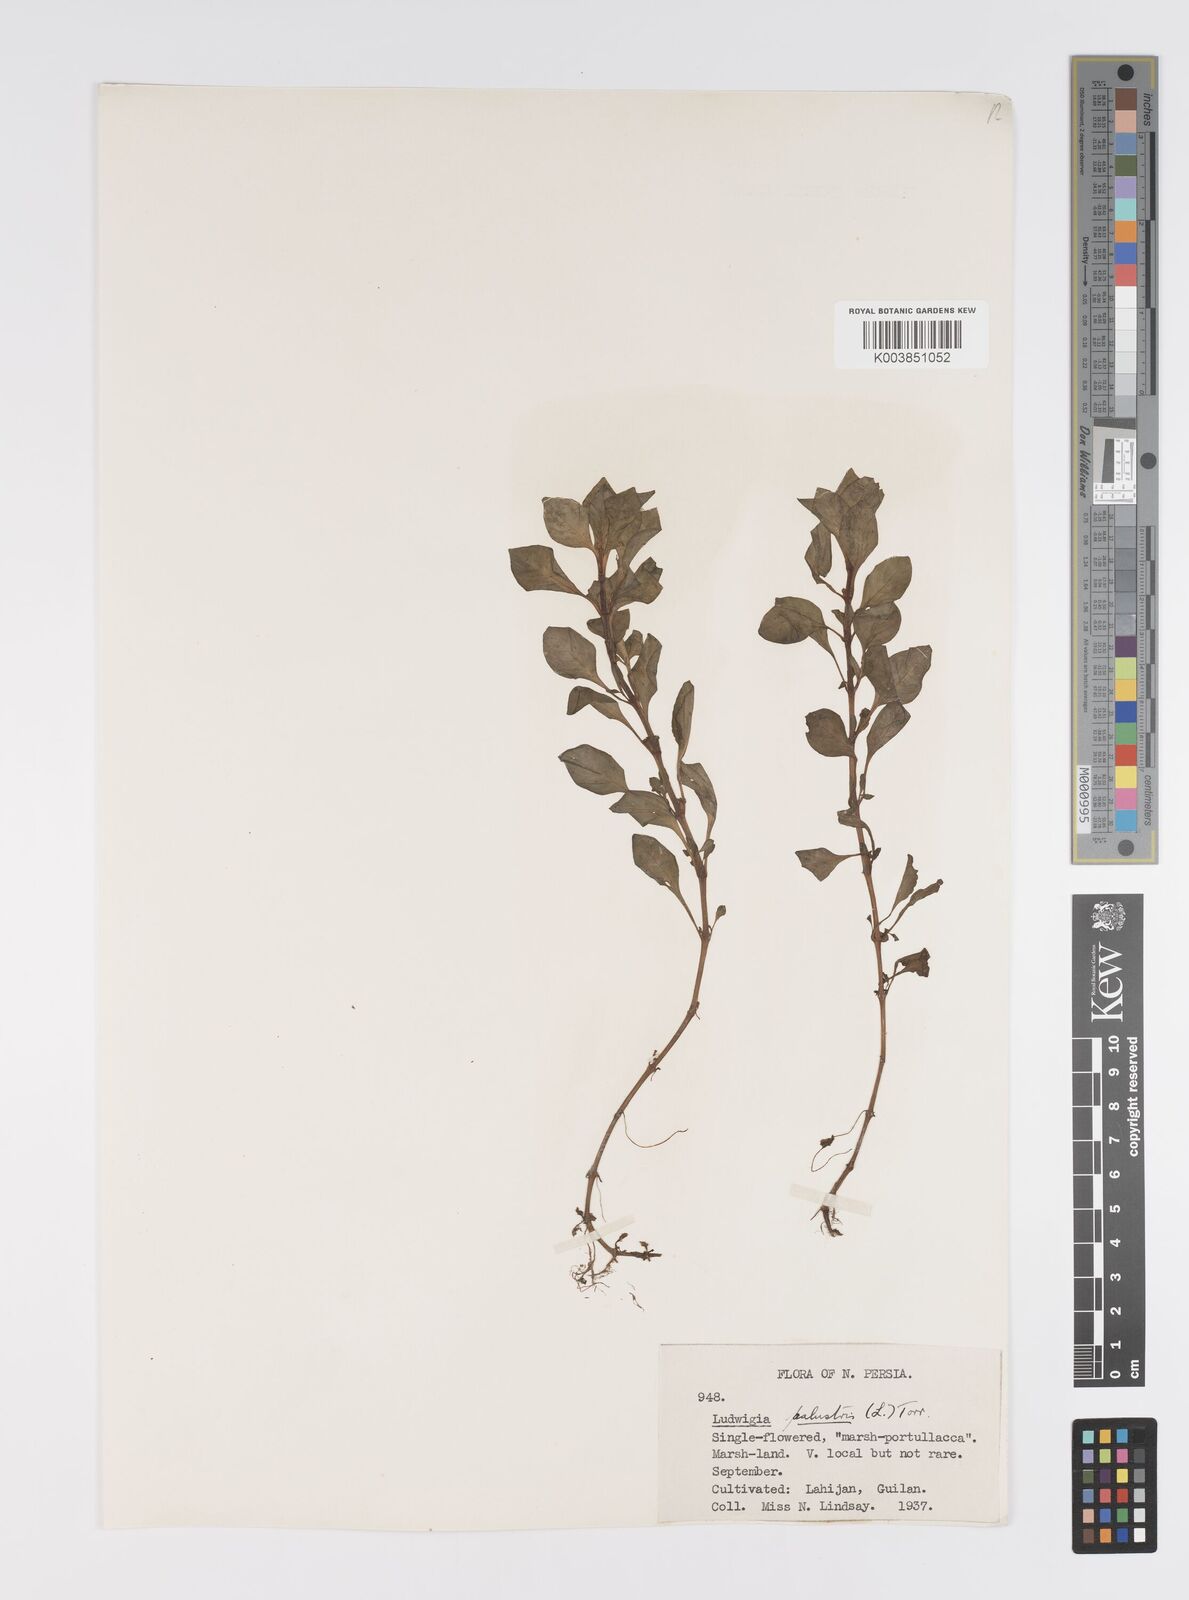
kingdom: Plantae
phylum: Tracheophyta
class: Magnoliopsida
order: Myrtales
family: Onagraceae
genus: Ludwigia
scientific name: Ludwigia palustris
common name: Hampshire-purslane
